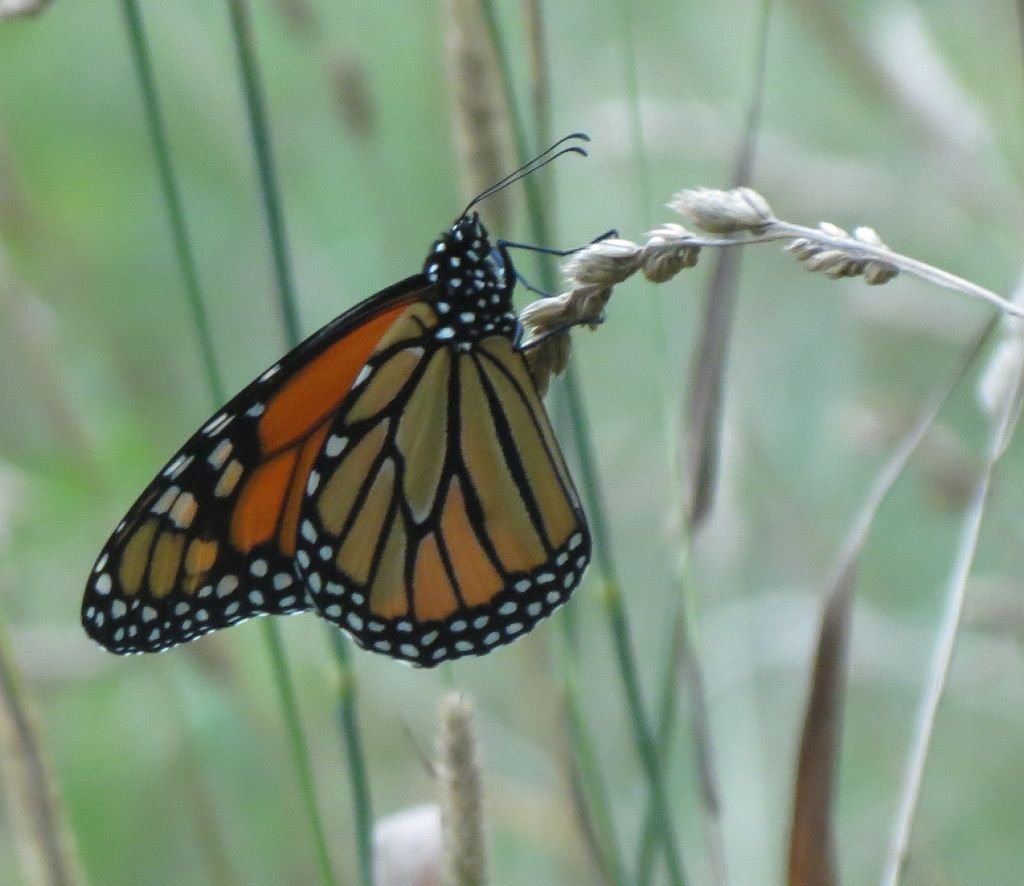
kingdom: Animalia
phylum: Arthropoda
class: Insecta
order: Lepidoptera
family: Nymphalidae
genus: Danaus
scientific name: Danaus plexippus
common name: Monarch
